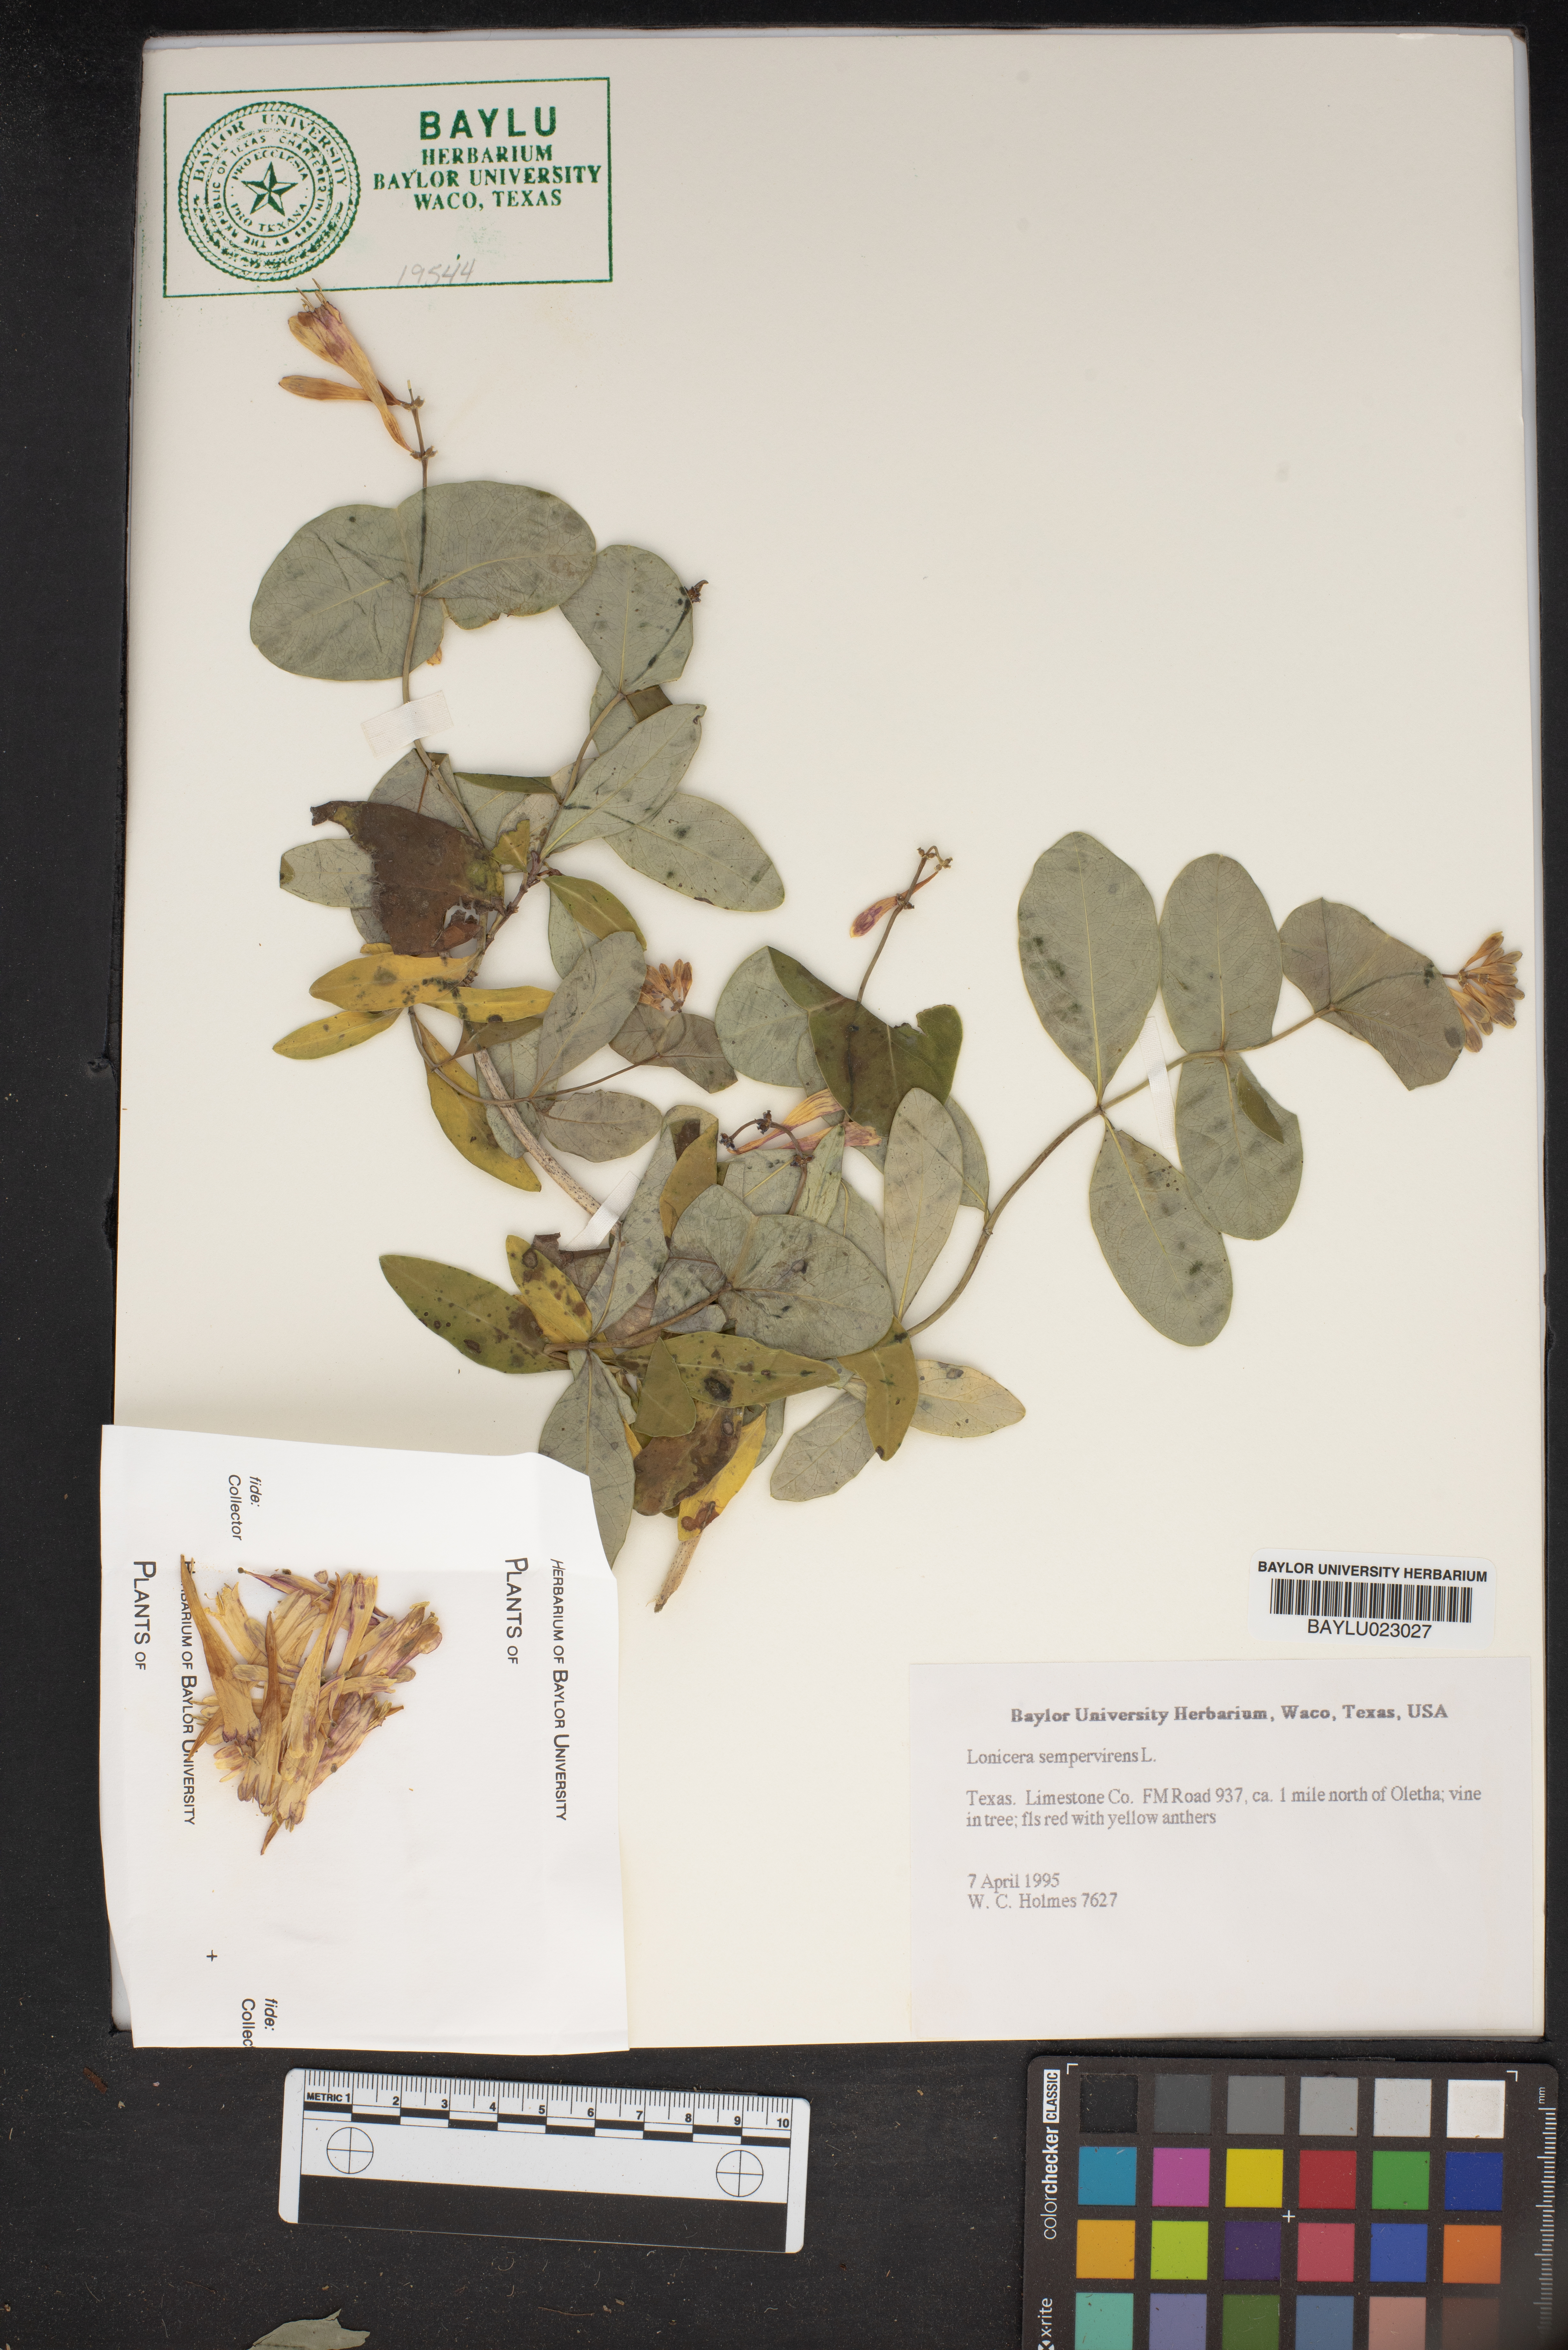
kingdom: Plantae
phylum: Tracheophyta
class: Magnoliopsida
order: Dipsacales
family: Caprifoliaceae
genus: Lonicera
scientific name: Lonicera sempervirens
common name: Coral honeysuckle
